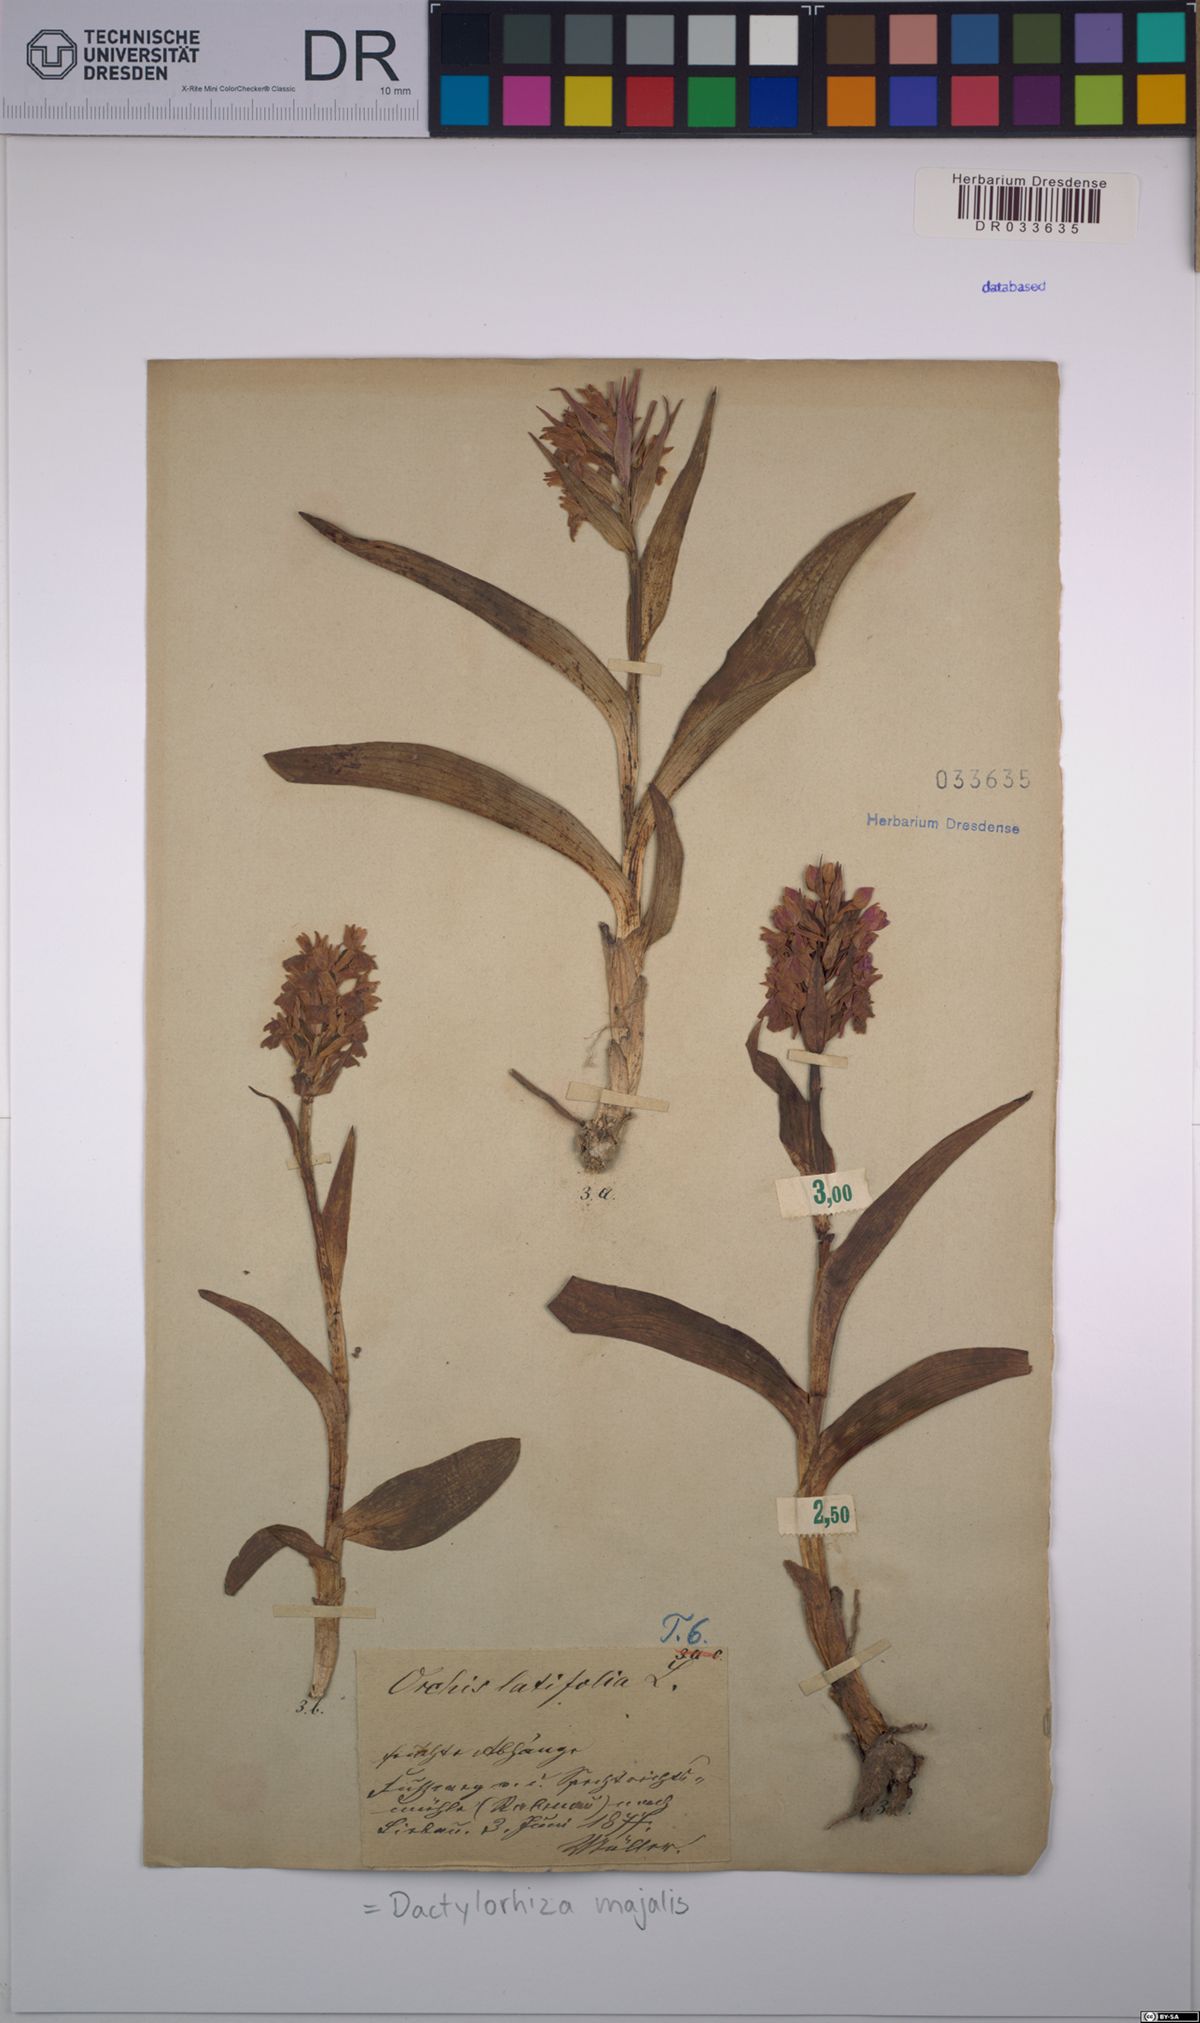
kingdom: Plantae
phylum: Tracheophyta
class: Liliopsida
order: Asparagales
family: Orchidaceae
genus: Dactylorhiza
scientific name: Dactylorhiza majalis
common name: Marsh orchid
